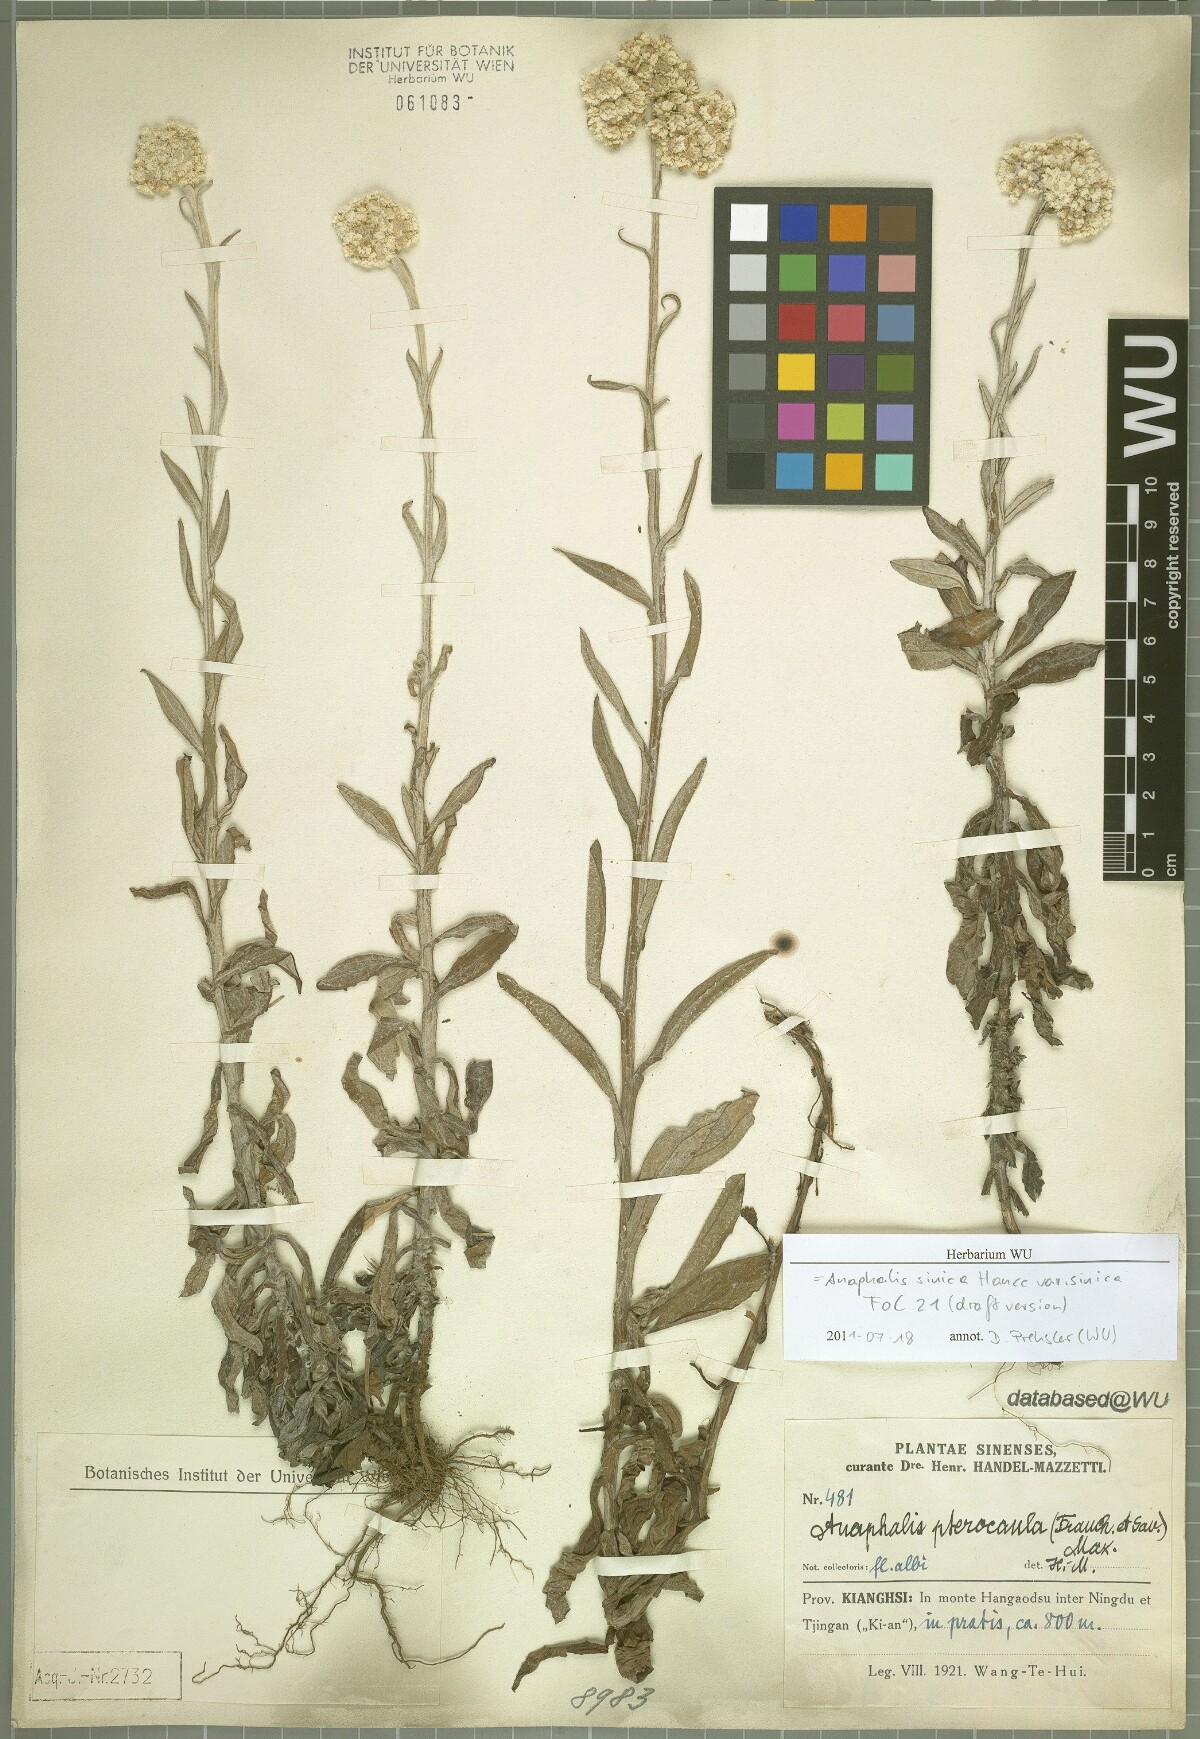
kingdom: Plantae
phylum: Tracheophyta
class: Magnoliopsida
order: Asterales
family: Asteraceae
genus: Anaphalis
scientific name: Anaphalis sinica
